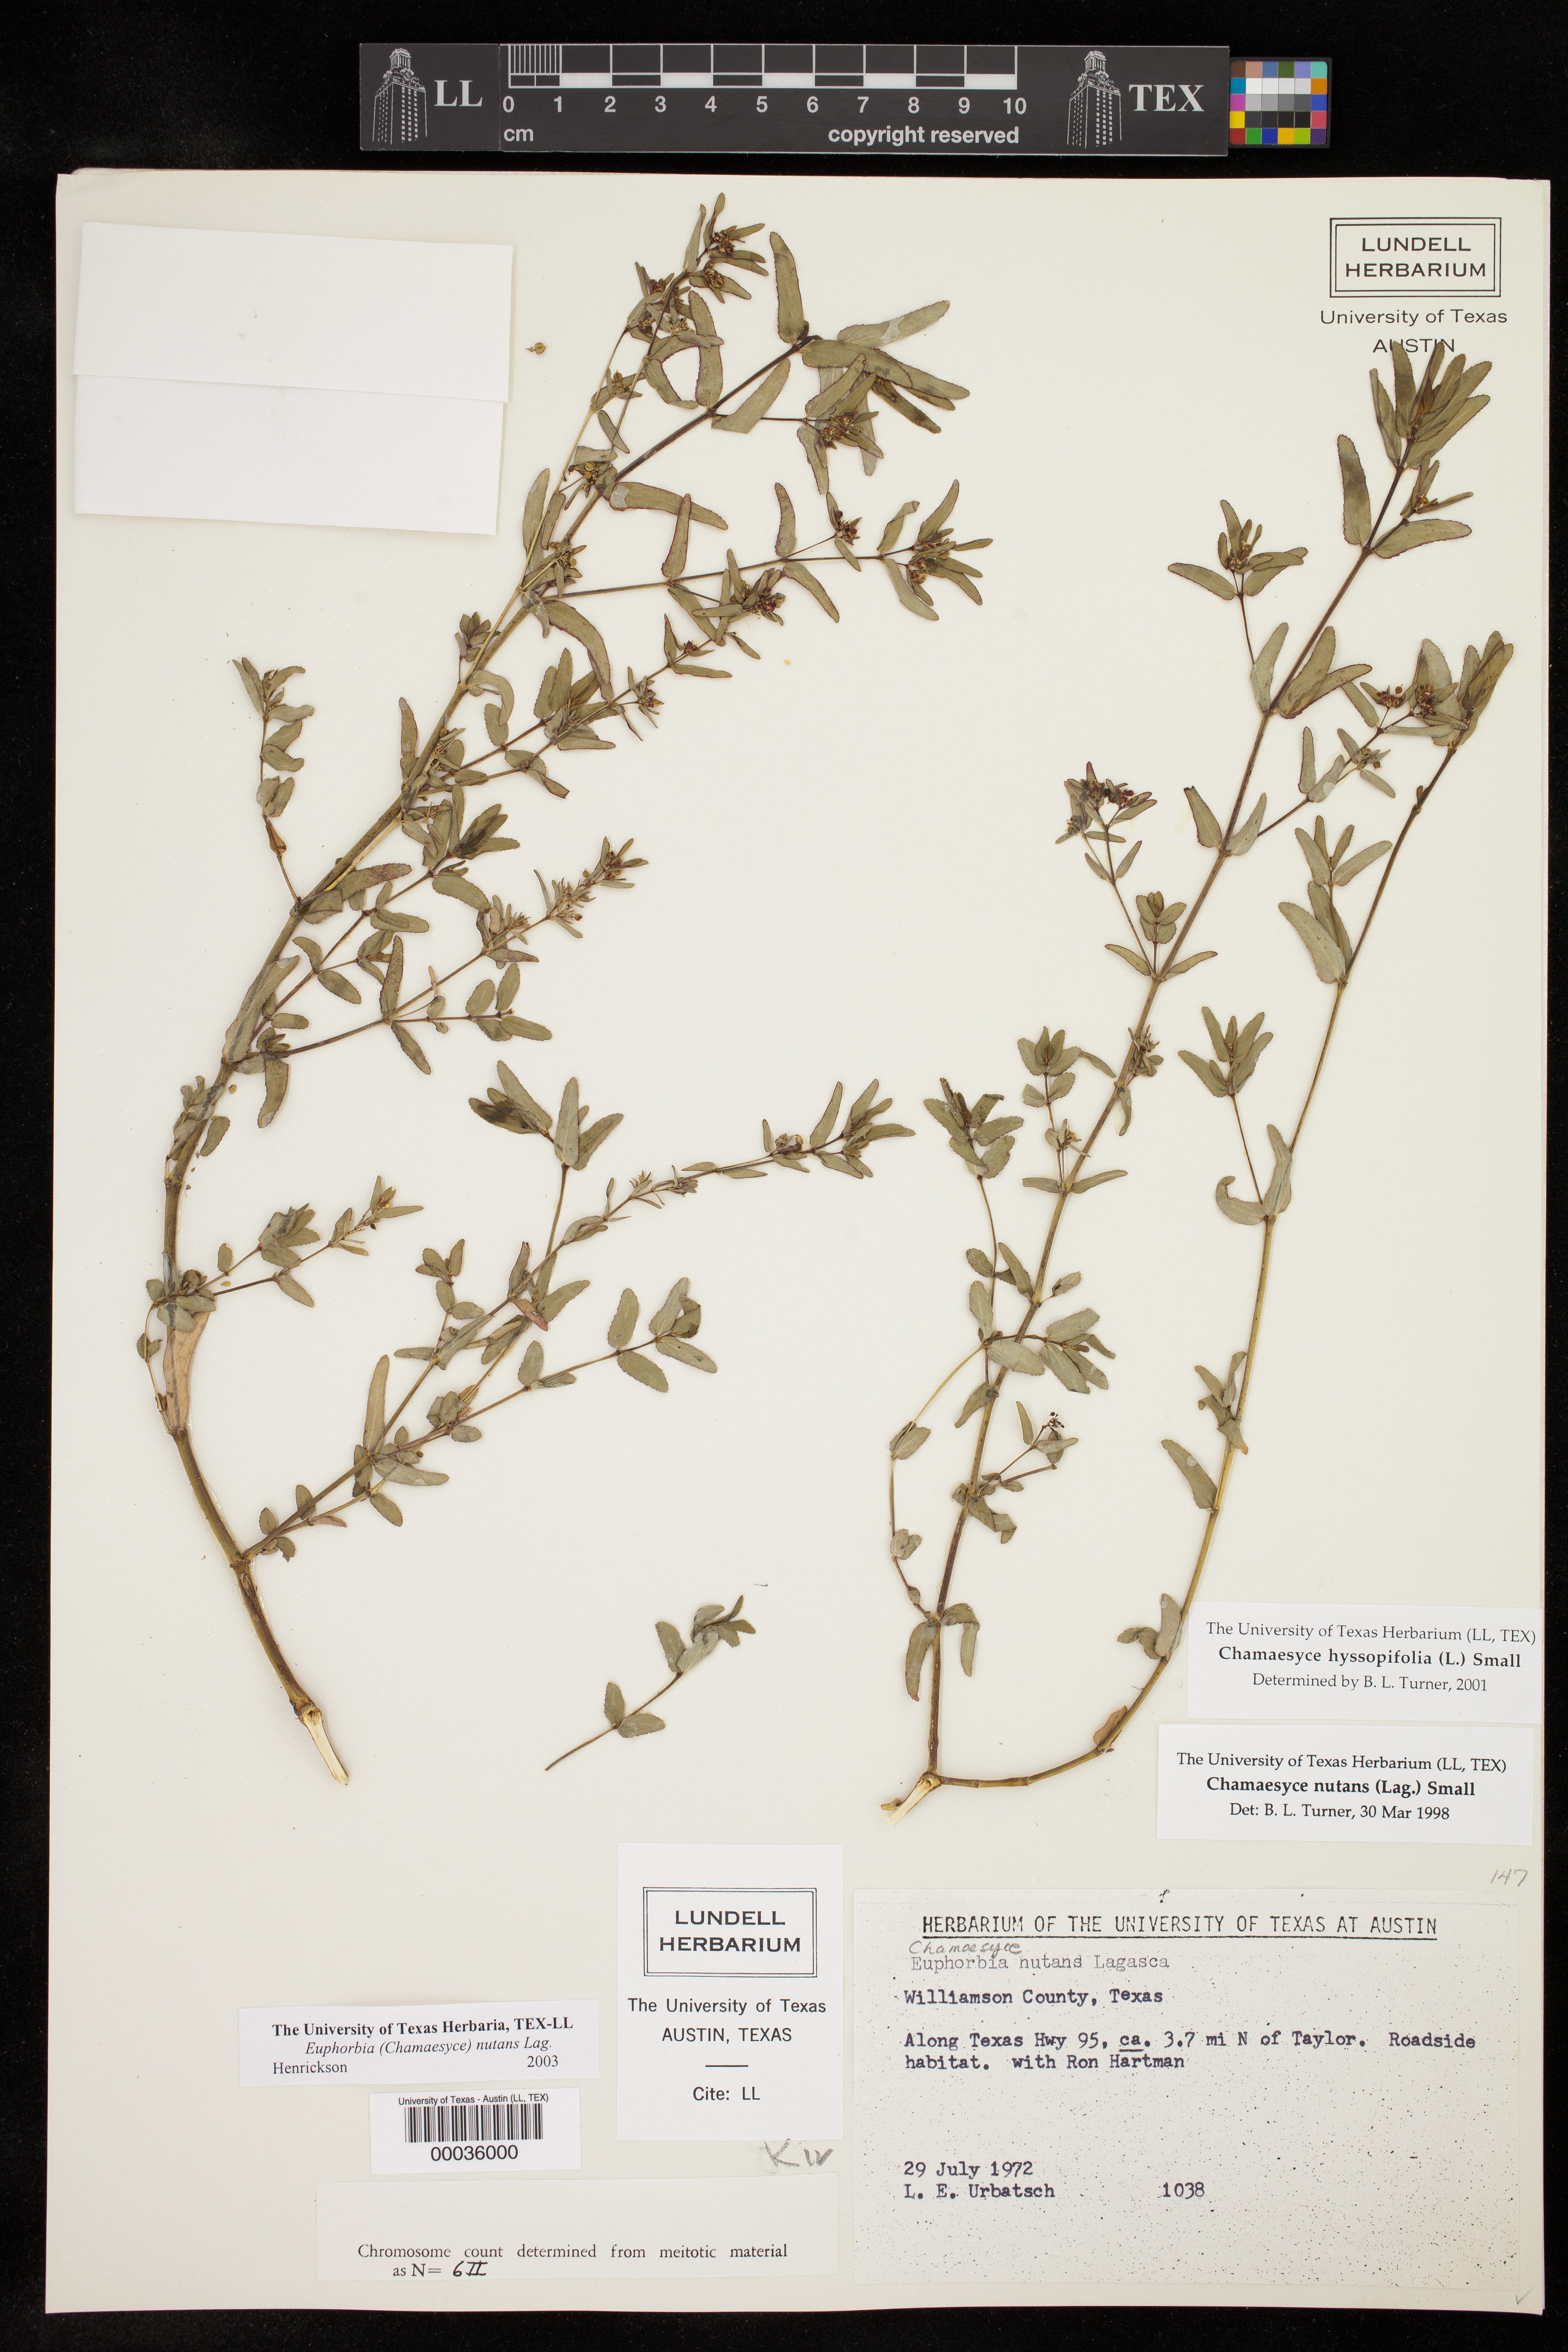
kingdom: Plantae
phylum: Tracheophyta
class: Magnoliopsida
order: Malpighiales
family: Euphorbiaceae
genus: Euphorbia
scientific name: Euphorbia nutans
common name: Eyebane
